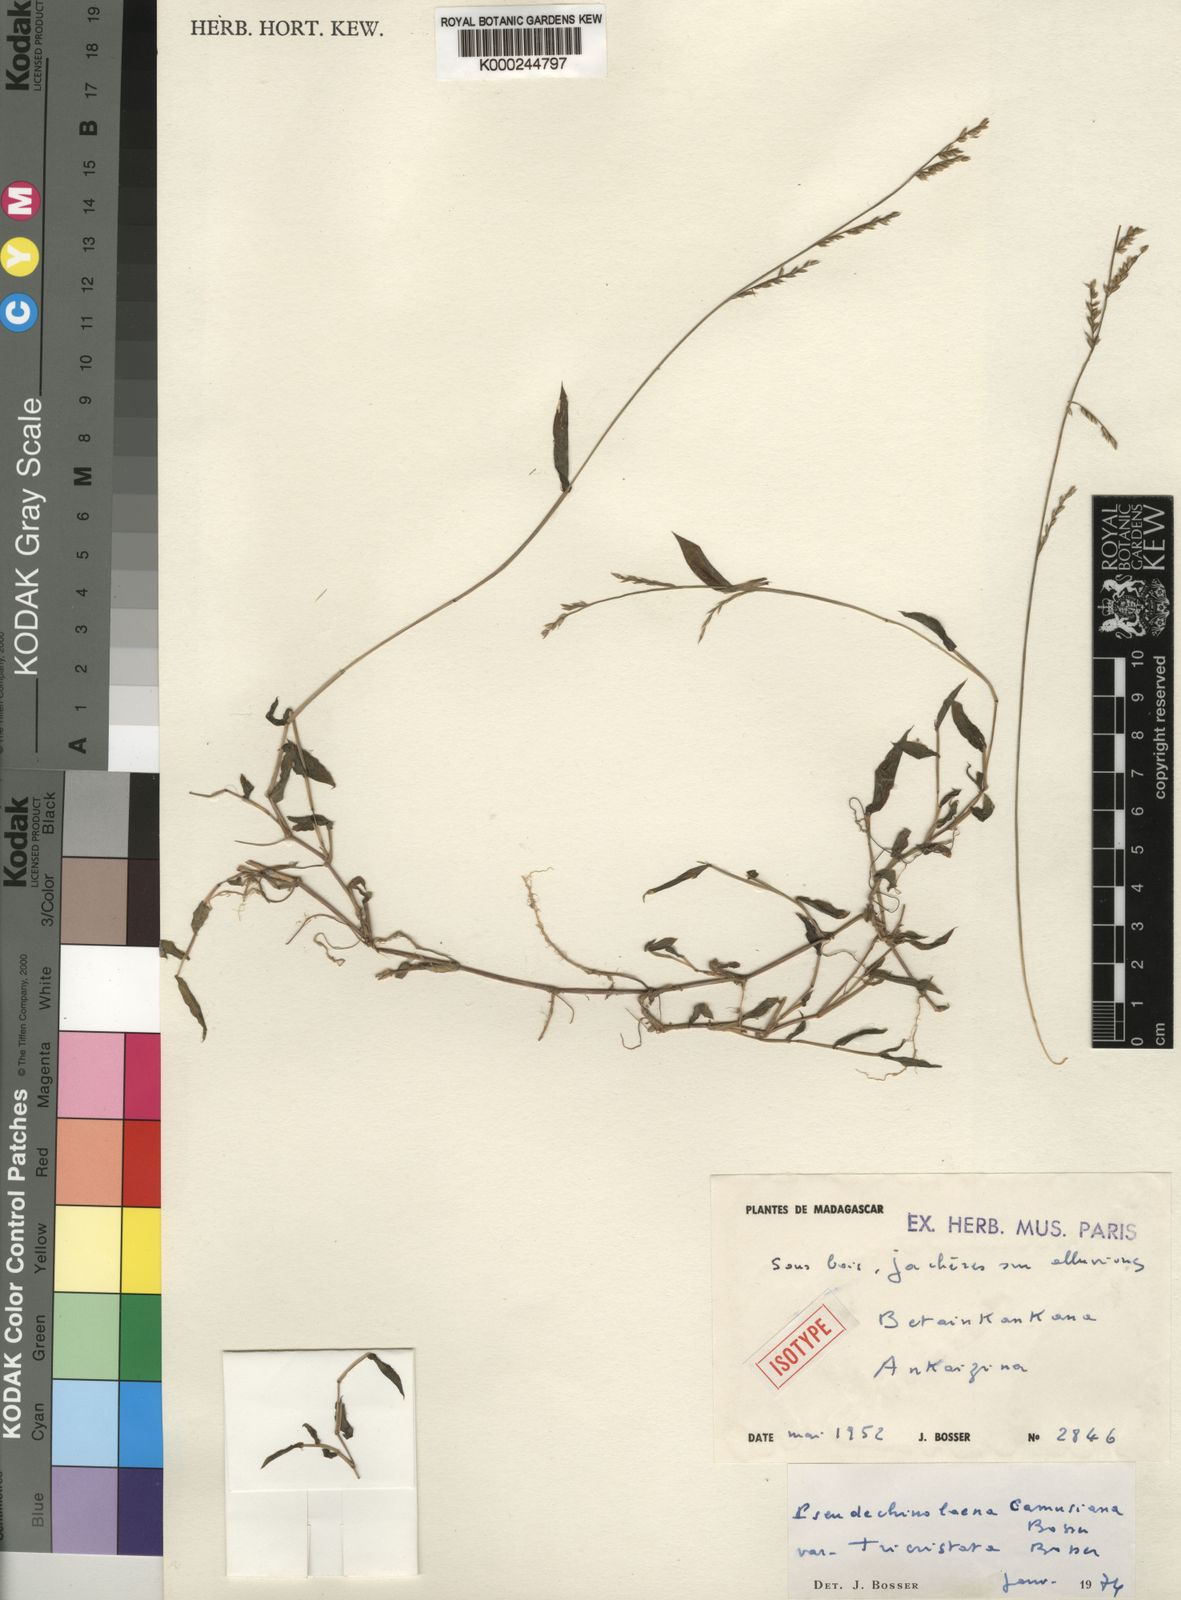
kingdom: Plantae
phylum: Tracheophyta
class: Liliopsida
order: Poales
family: Poaceae
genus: Pseudechinolaena
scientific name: Pseudechinolaena camusiana
